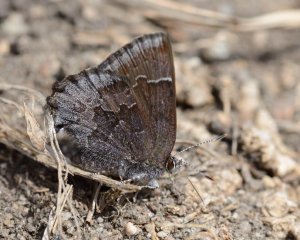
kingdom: Animalia
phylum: Arthropoda
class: Insecta
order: Lepidoptera
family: Lycaenidae
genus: Callophrys
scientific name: Callophrys polios
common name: Hoary Elfin
